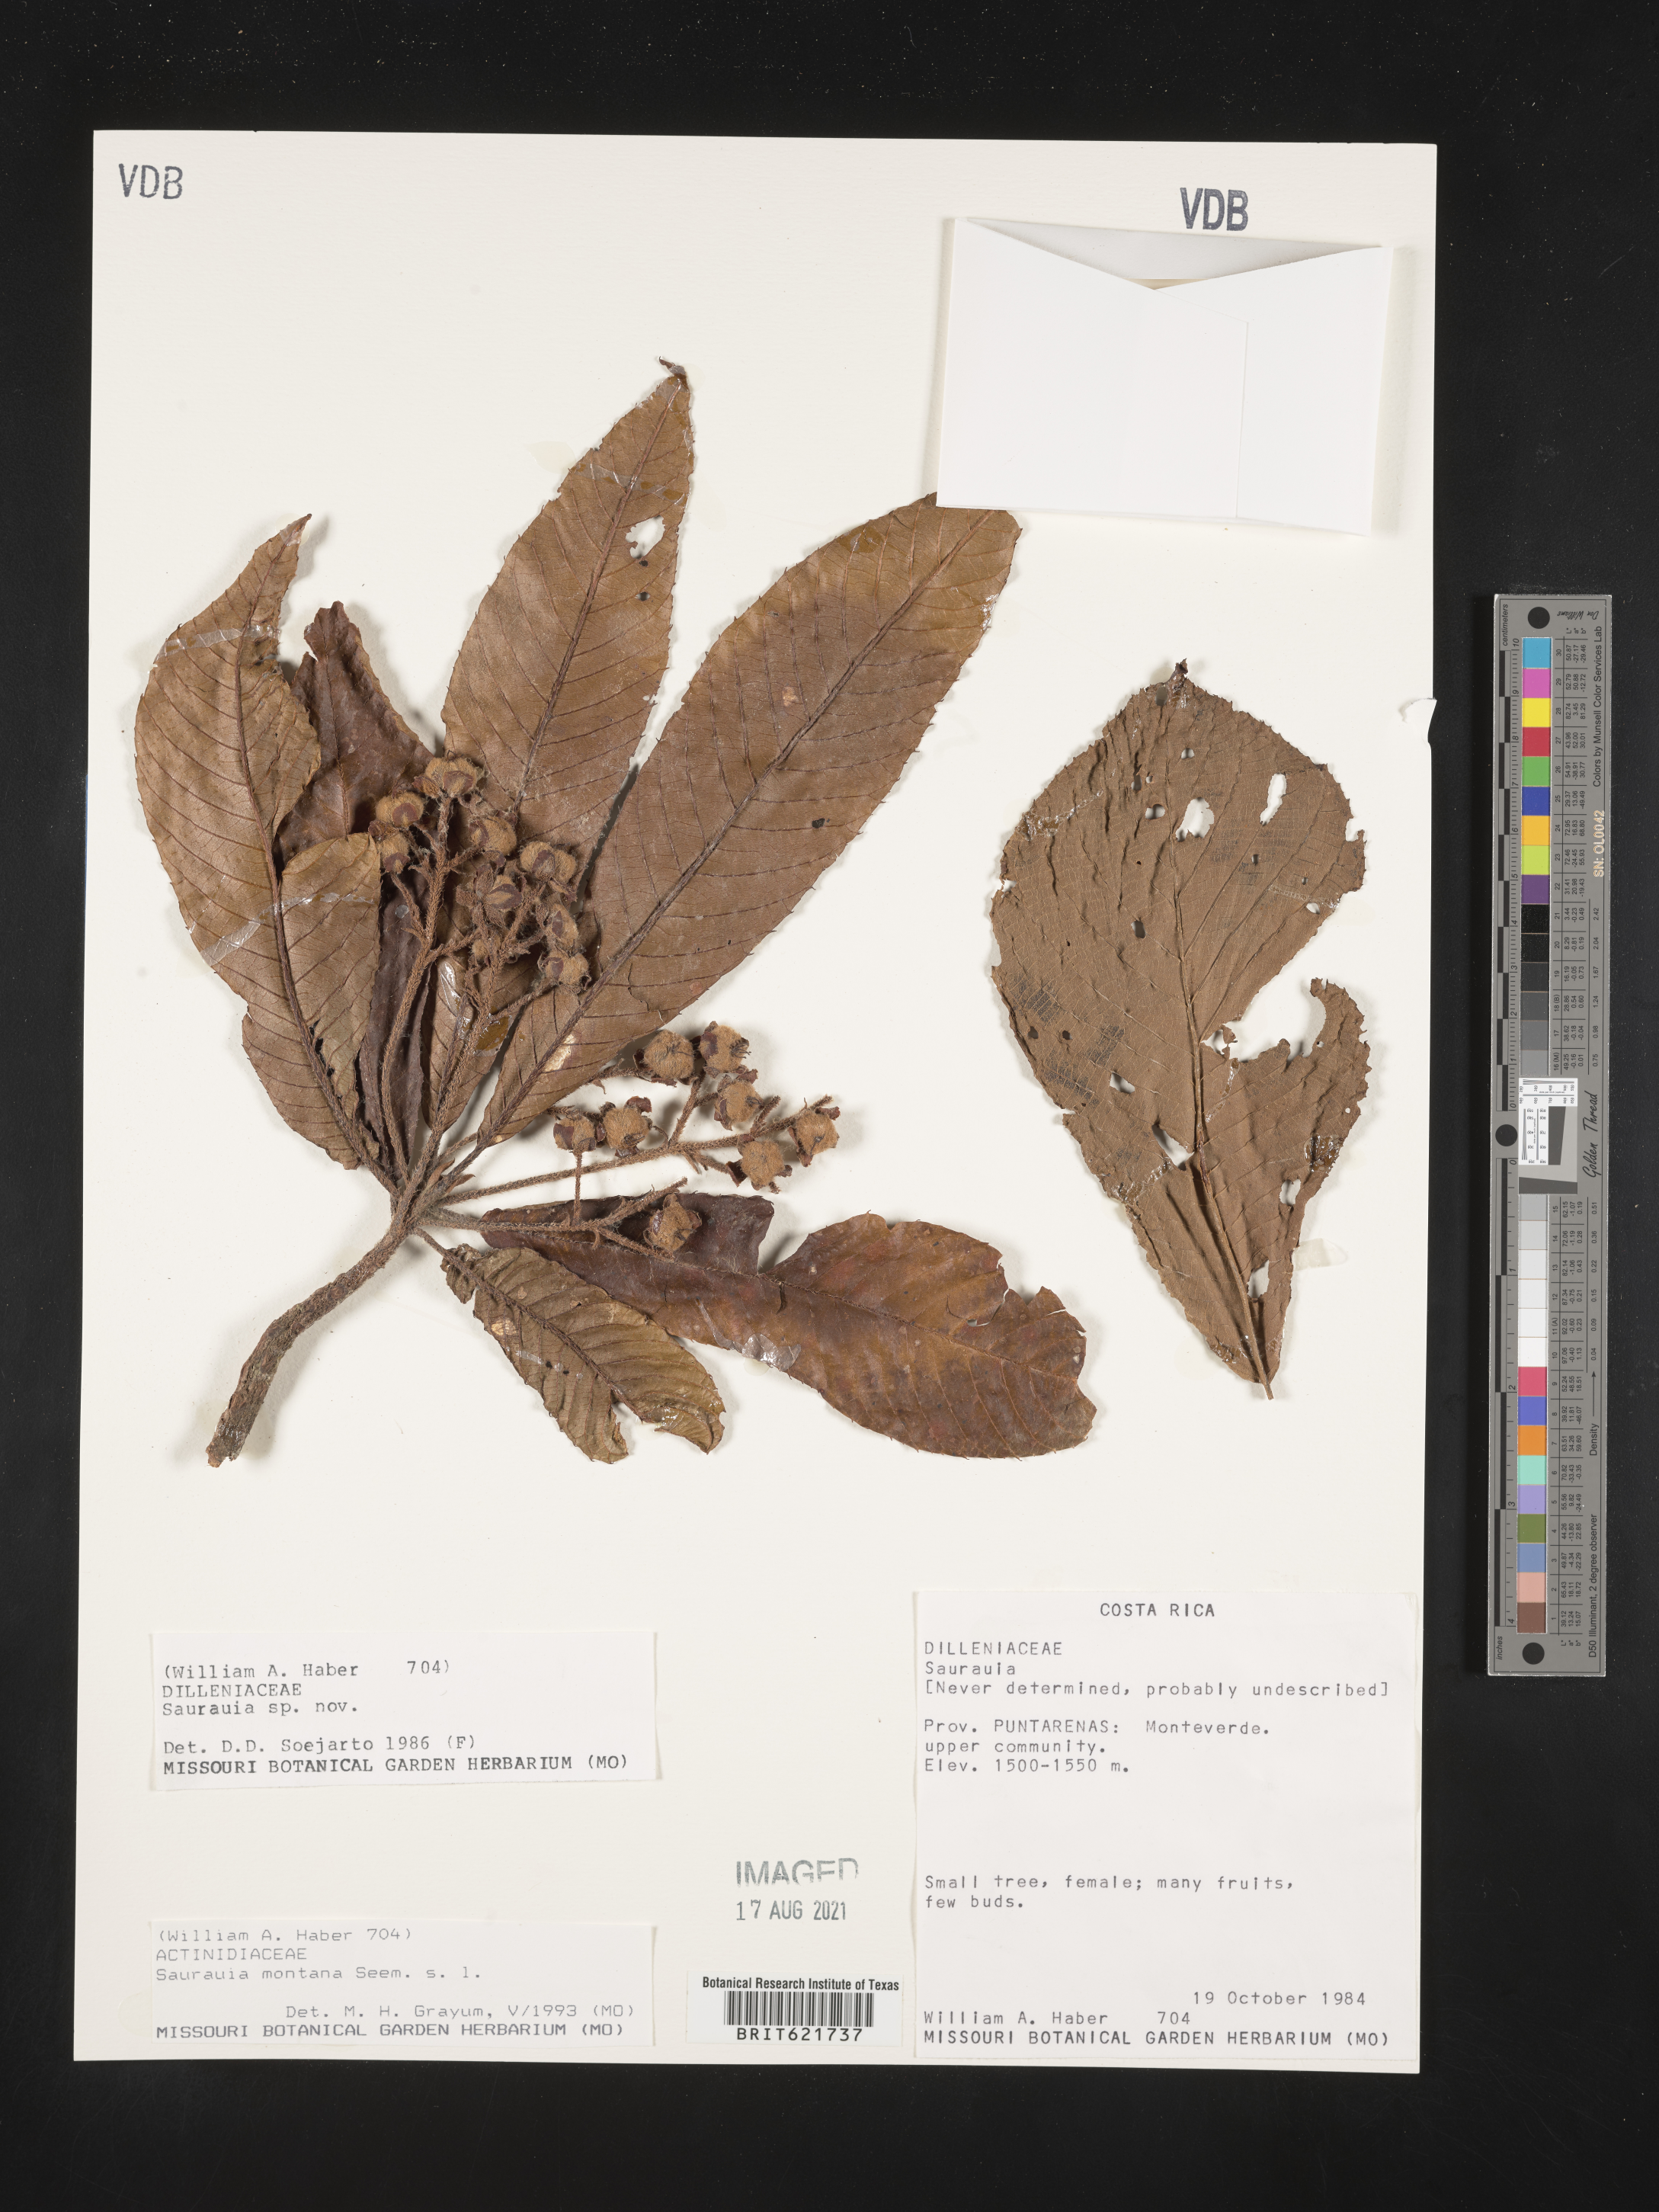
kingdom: Plantae
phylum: Tracheophyta
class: Magnoliopsida
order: Ericales
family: Actinidiaceae
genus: Saurauia
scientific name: Saurauia montana
